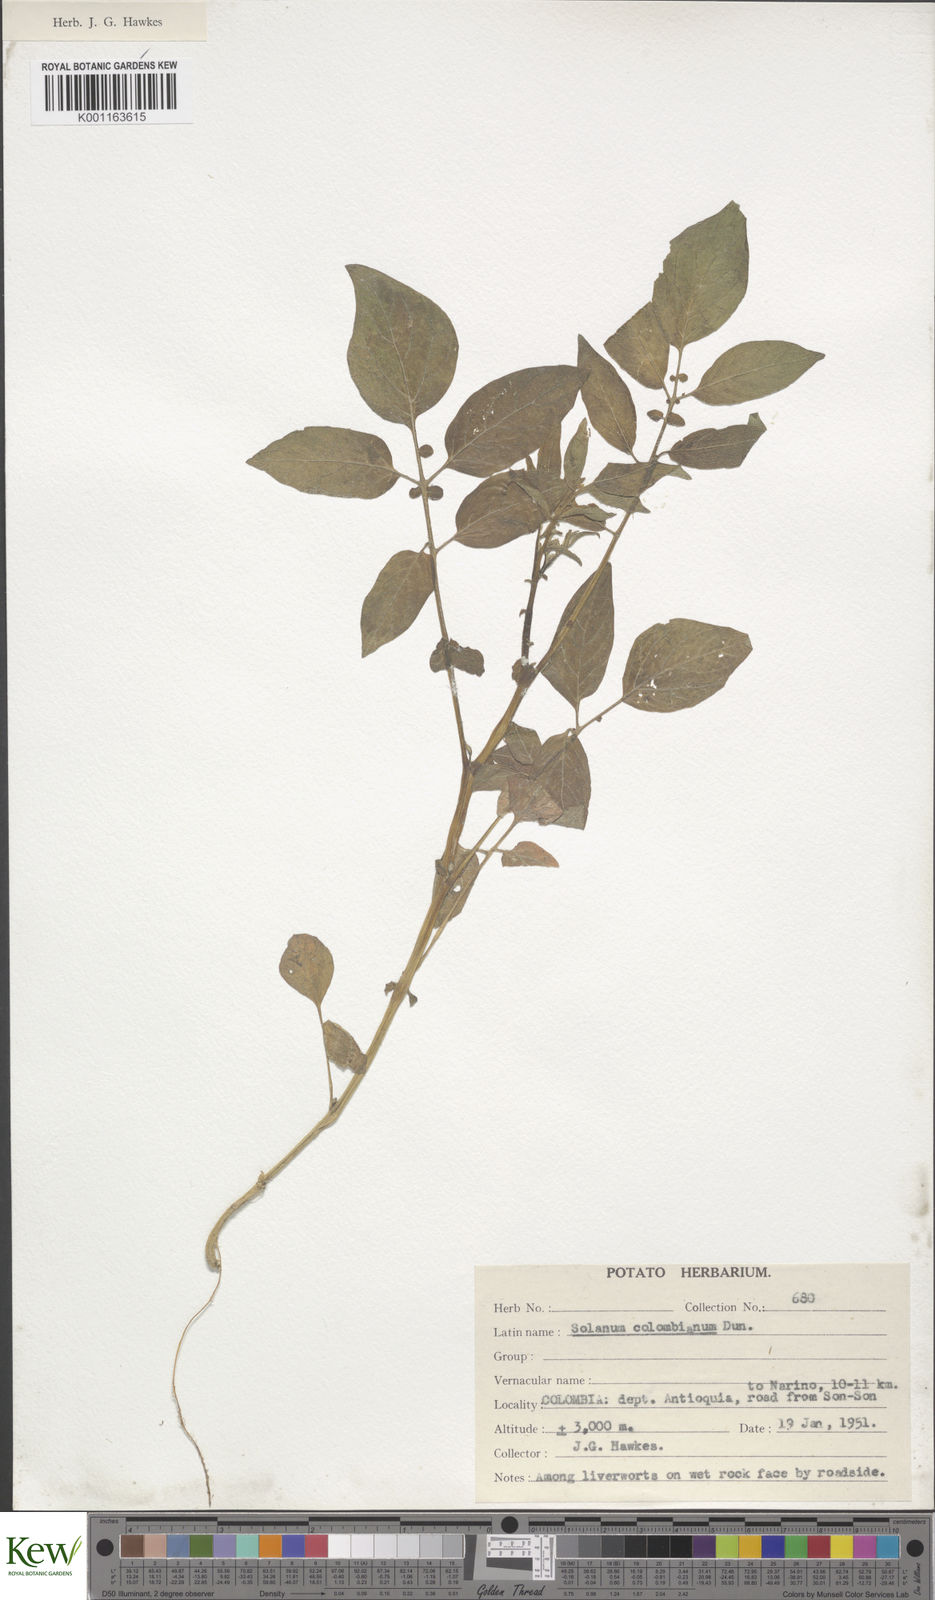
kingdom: Plantae
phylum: Tracheophyta
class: Magnoliopsida
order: Solanales
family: Solanaceae
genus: Solanum
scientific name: Solanum colombianum
